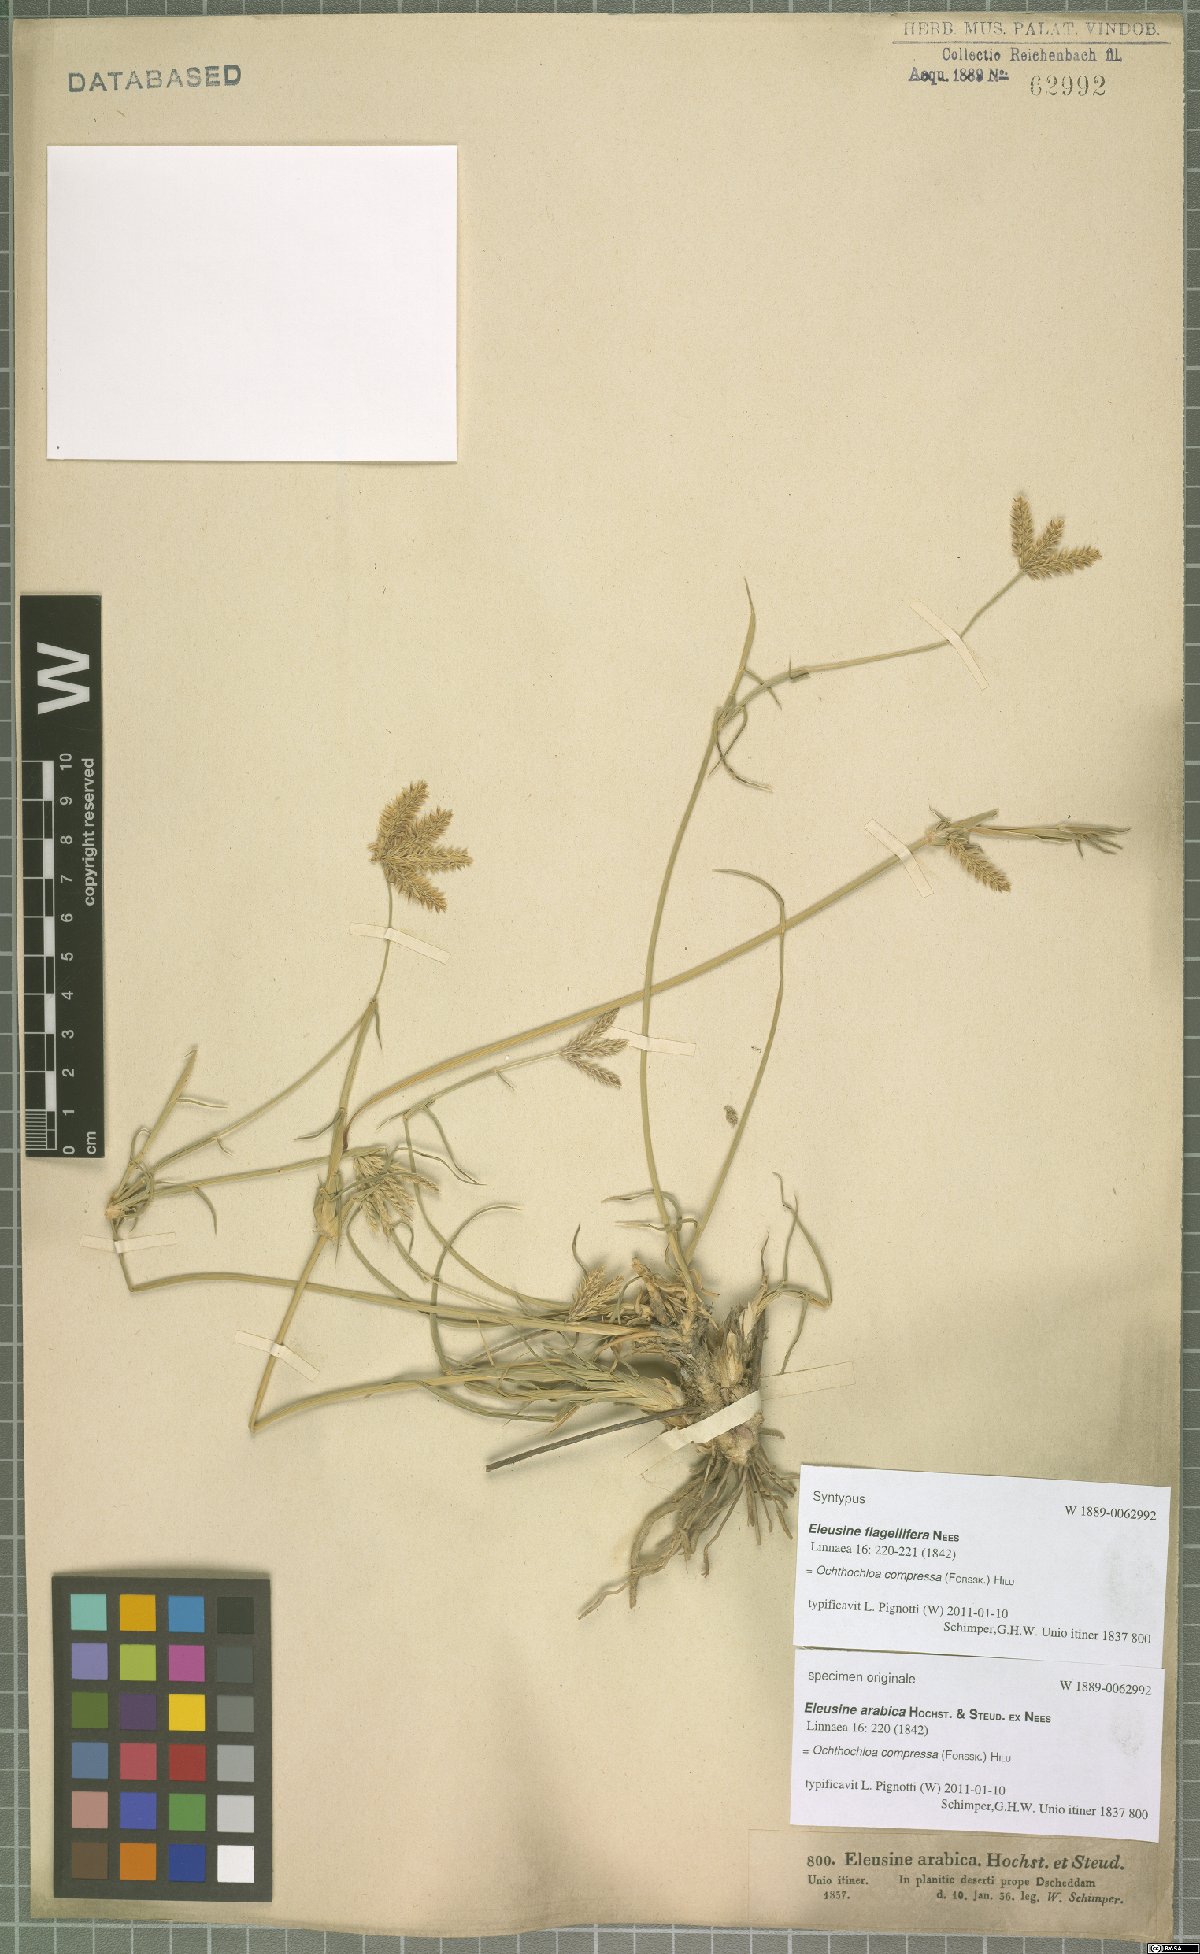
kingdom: Plantae
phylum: Tracheophyta
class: Liliopsida
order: Poales
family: Poaceae
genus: Chloris
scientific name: Chloris flagellifera
